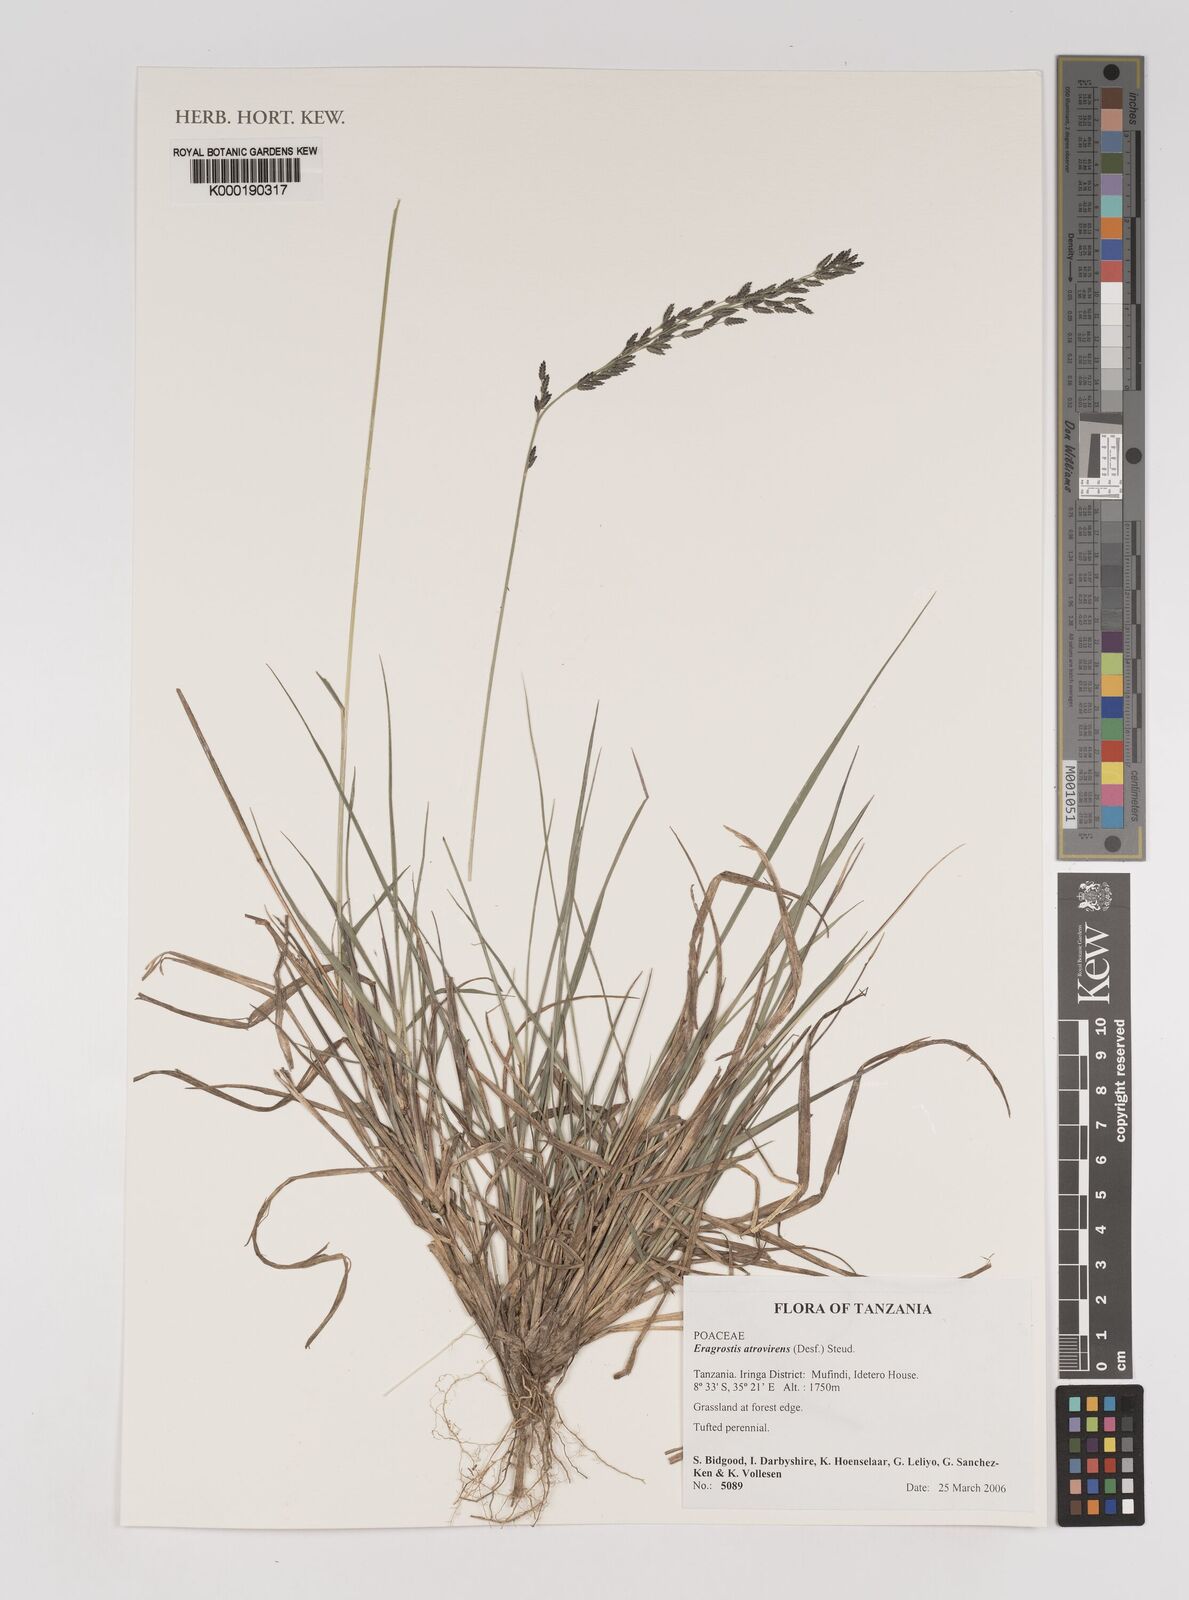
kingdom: Plantae
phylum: Tracheophyta
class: Liliopsida
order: Poales
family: Poaceae
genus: Eragrostis
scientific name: Eragrostis atrovirens
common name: Thalia lovegrass
